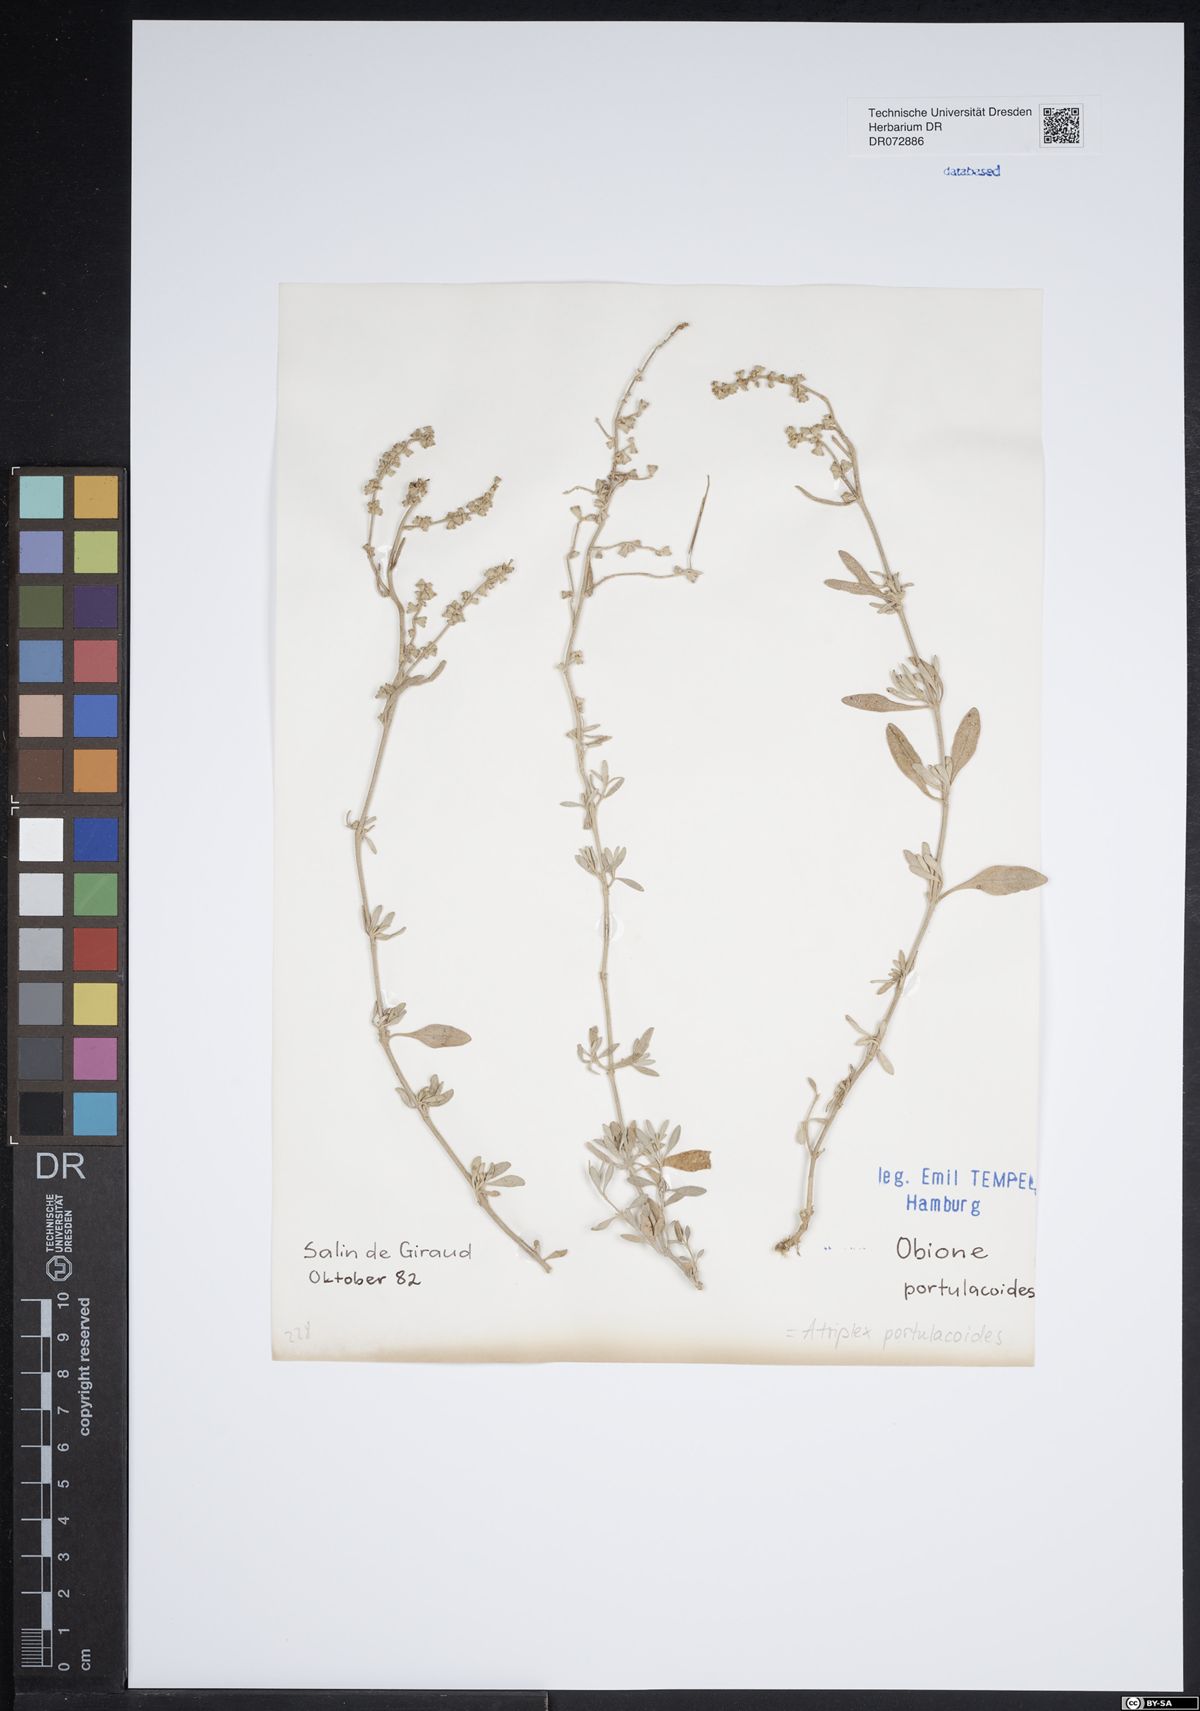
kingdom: Plantae
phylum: Tracheophyta
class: Magnoliopsida
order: Caryophyllales
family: Amaranthaceae
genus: Halimione
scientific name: Halimione portulacoides
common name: Sea-purslane
